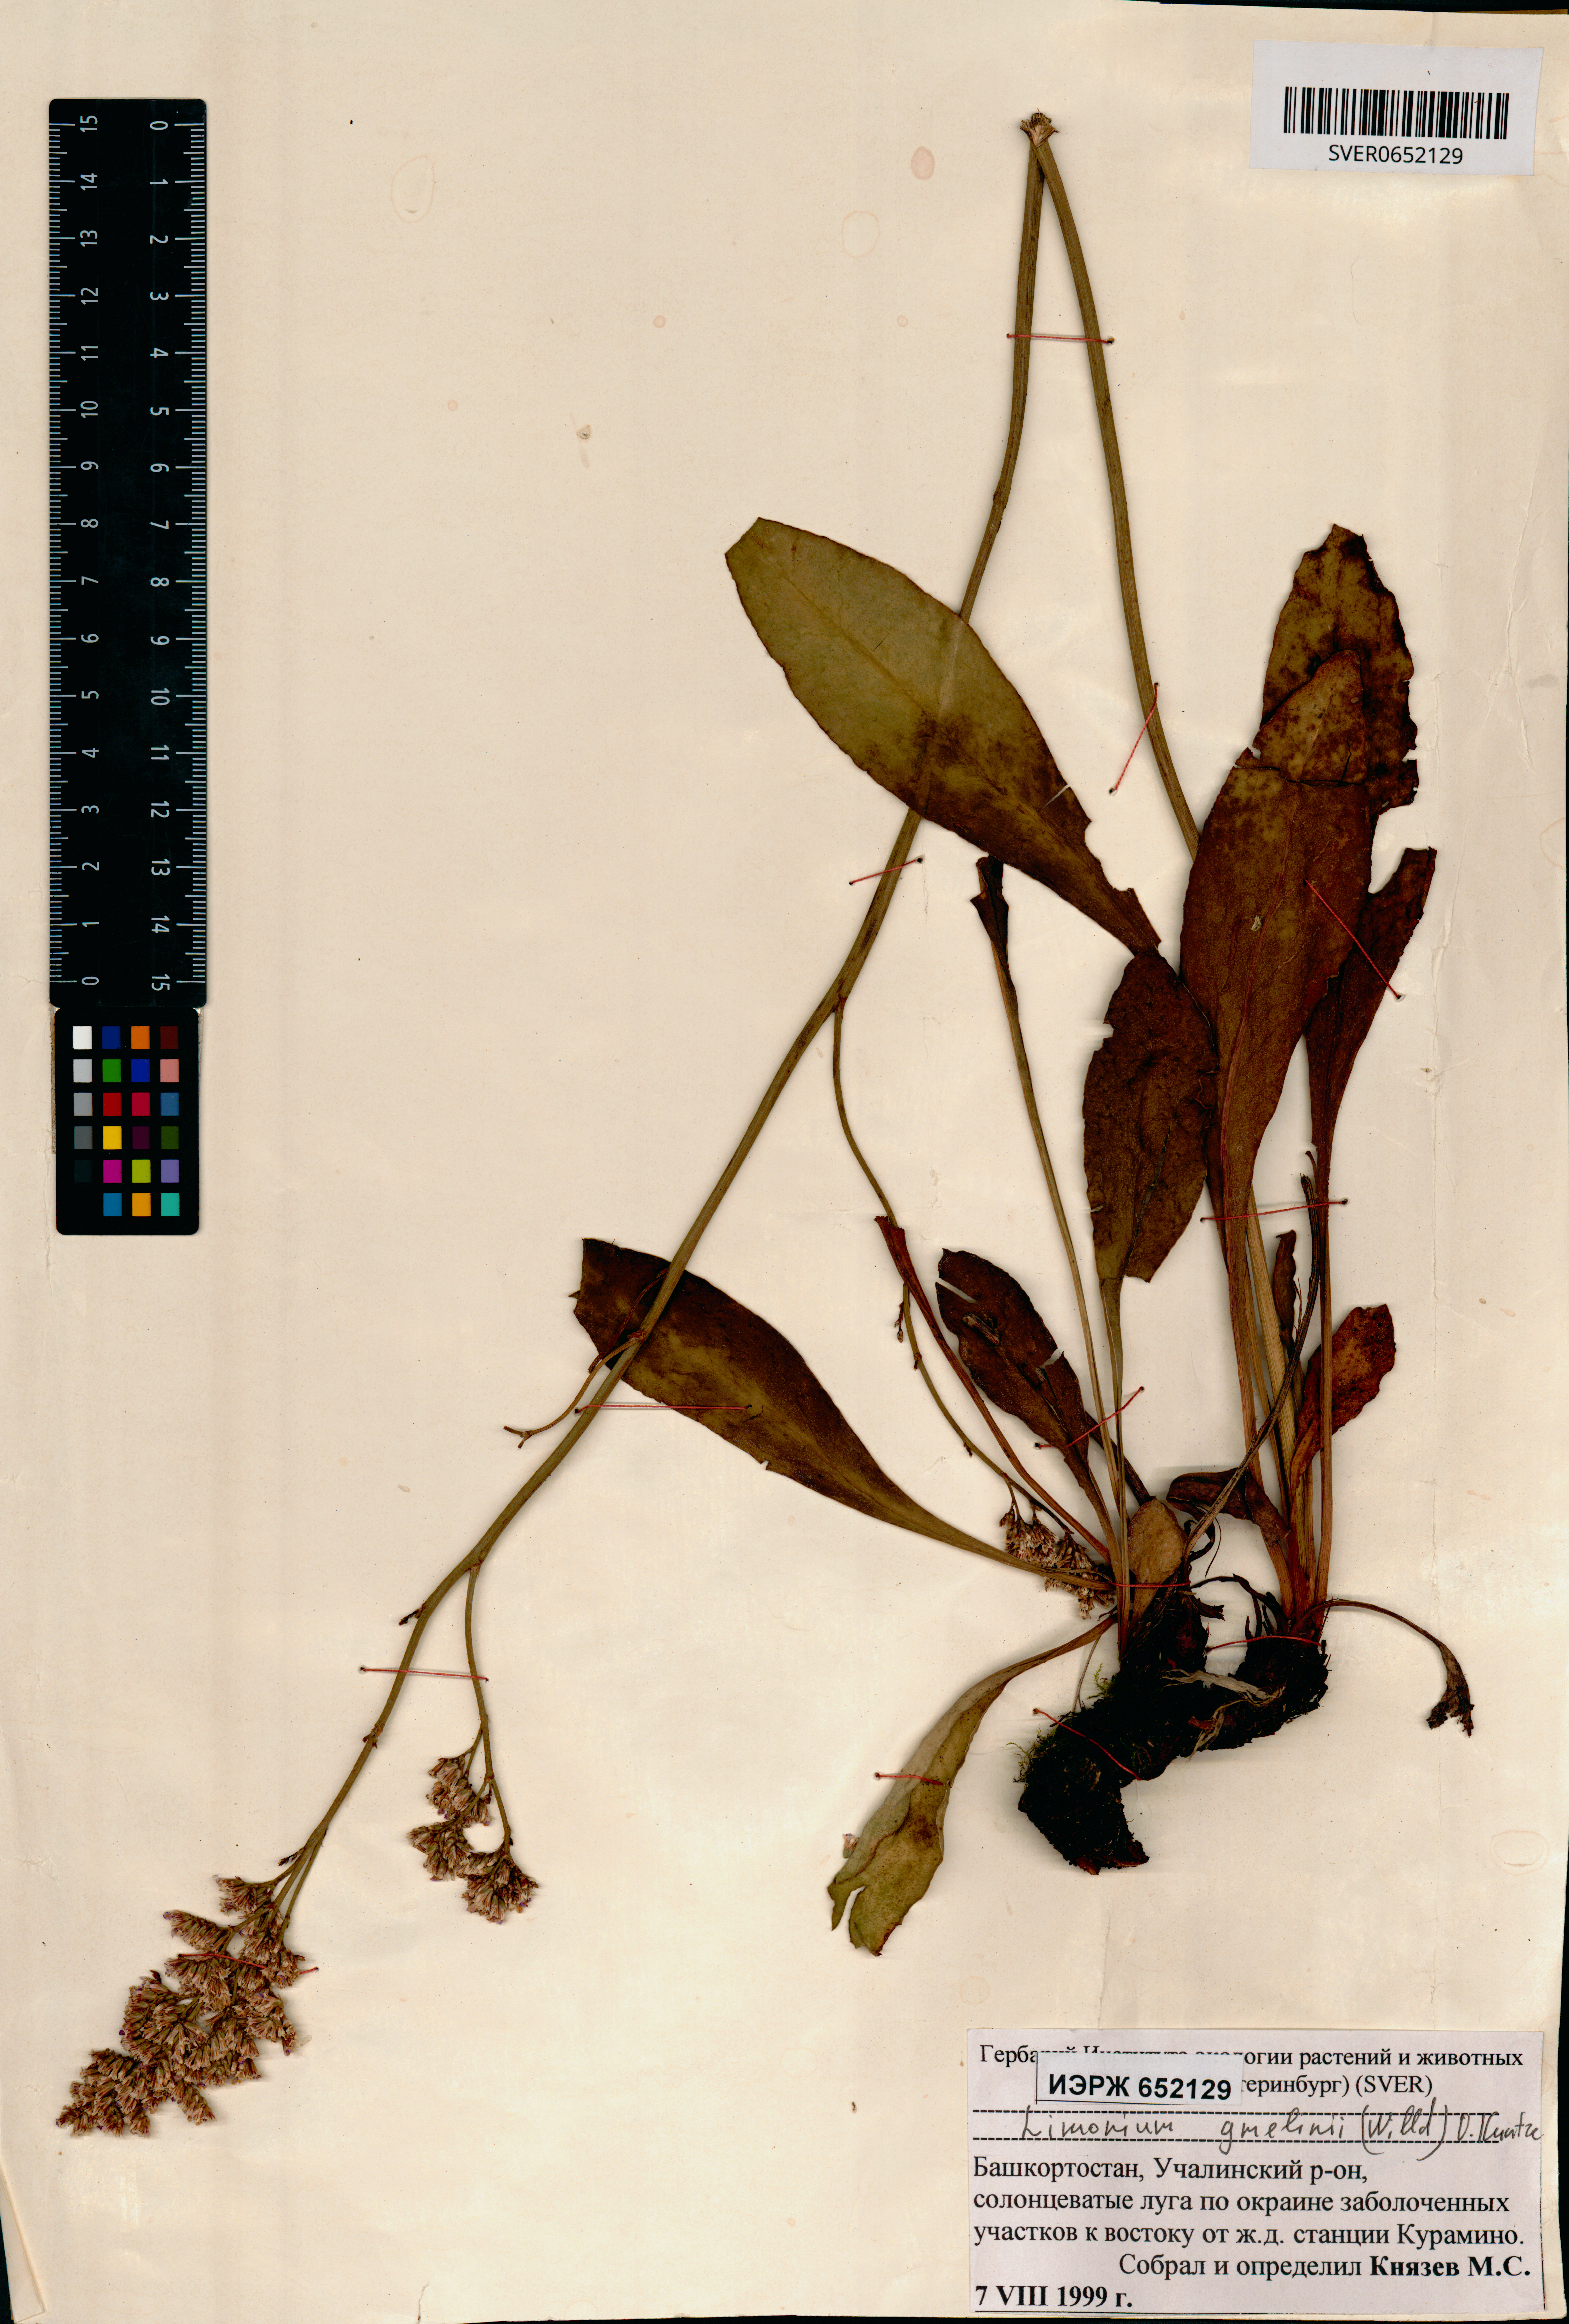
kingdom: Plantae
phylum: Tracheophyta
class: Magnoliopsida
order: Caryophyllales
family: Plumbaginaceae
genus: Limonium
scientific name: Limonium gmelini
